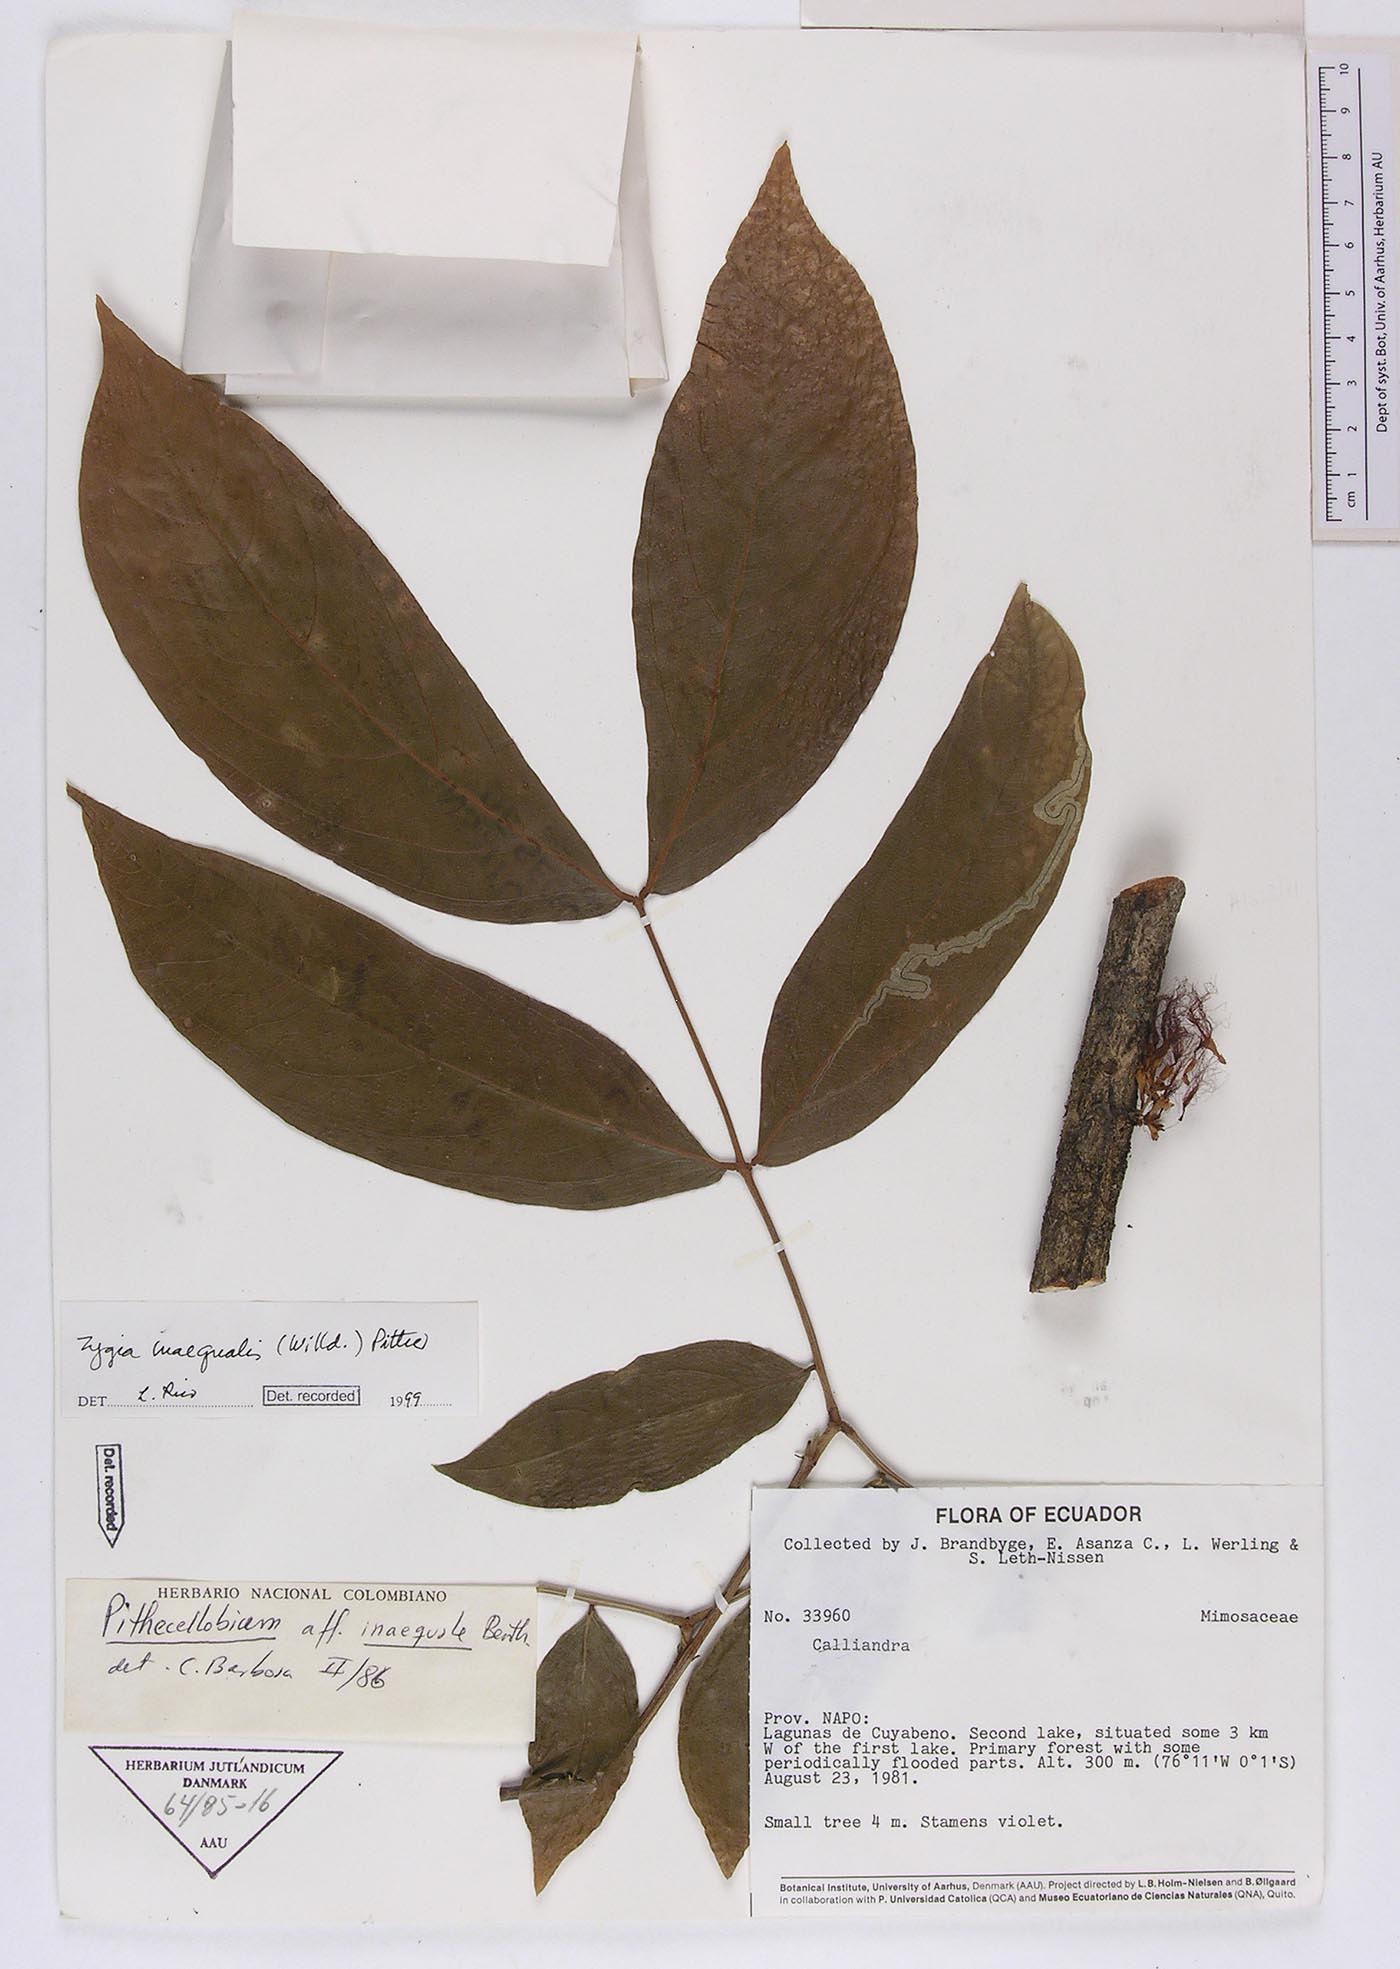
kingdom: Plantae
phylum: Tracheophyta
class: Magnoliopsida
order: Fabales
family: Fabaceae
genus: Zygia
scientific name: Zygia inaequalis
